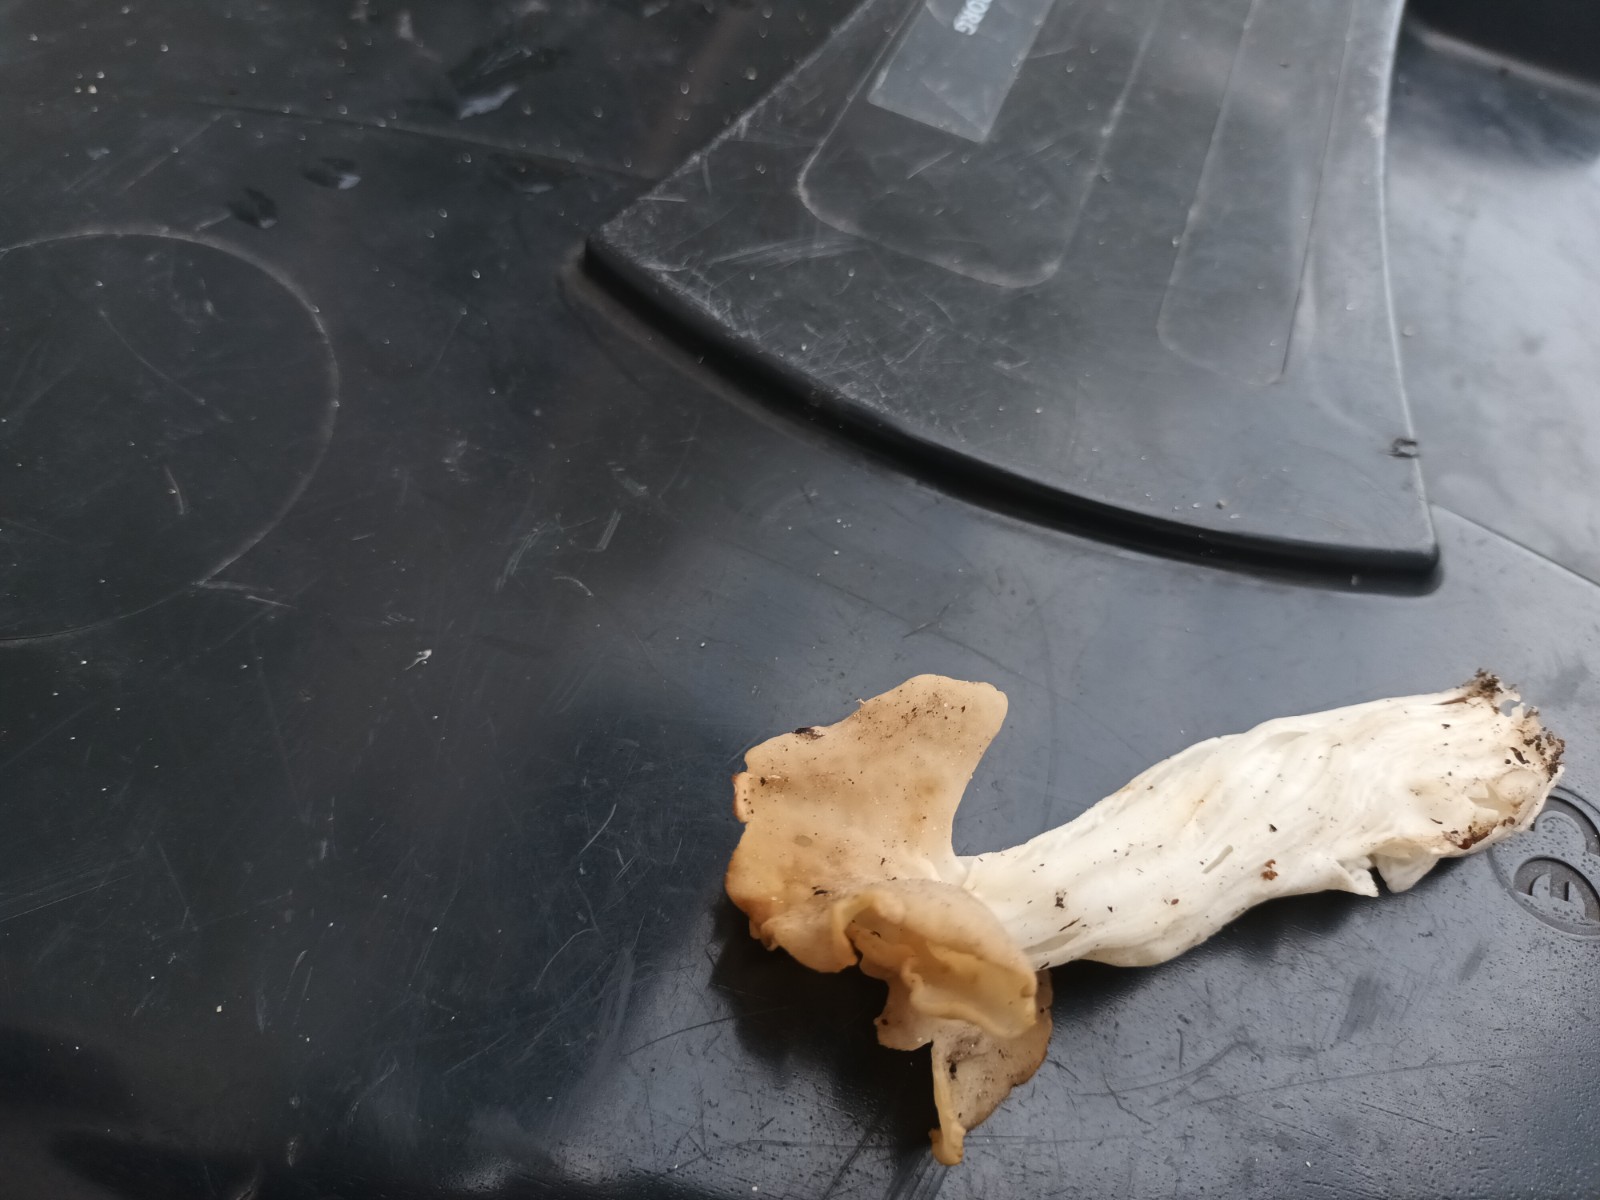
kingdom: Fungi
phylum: Ascomycota
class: Pezizomycetes
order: Pezizales
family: Helvellaceae
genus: Helvella
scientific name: Helvella crispa
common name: kruset foldhat
